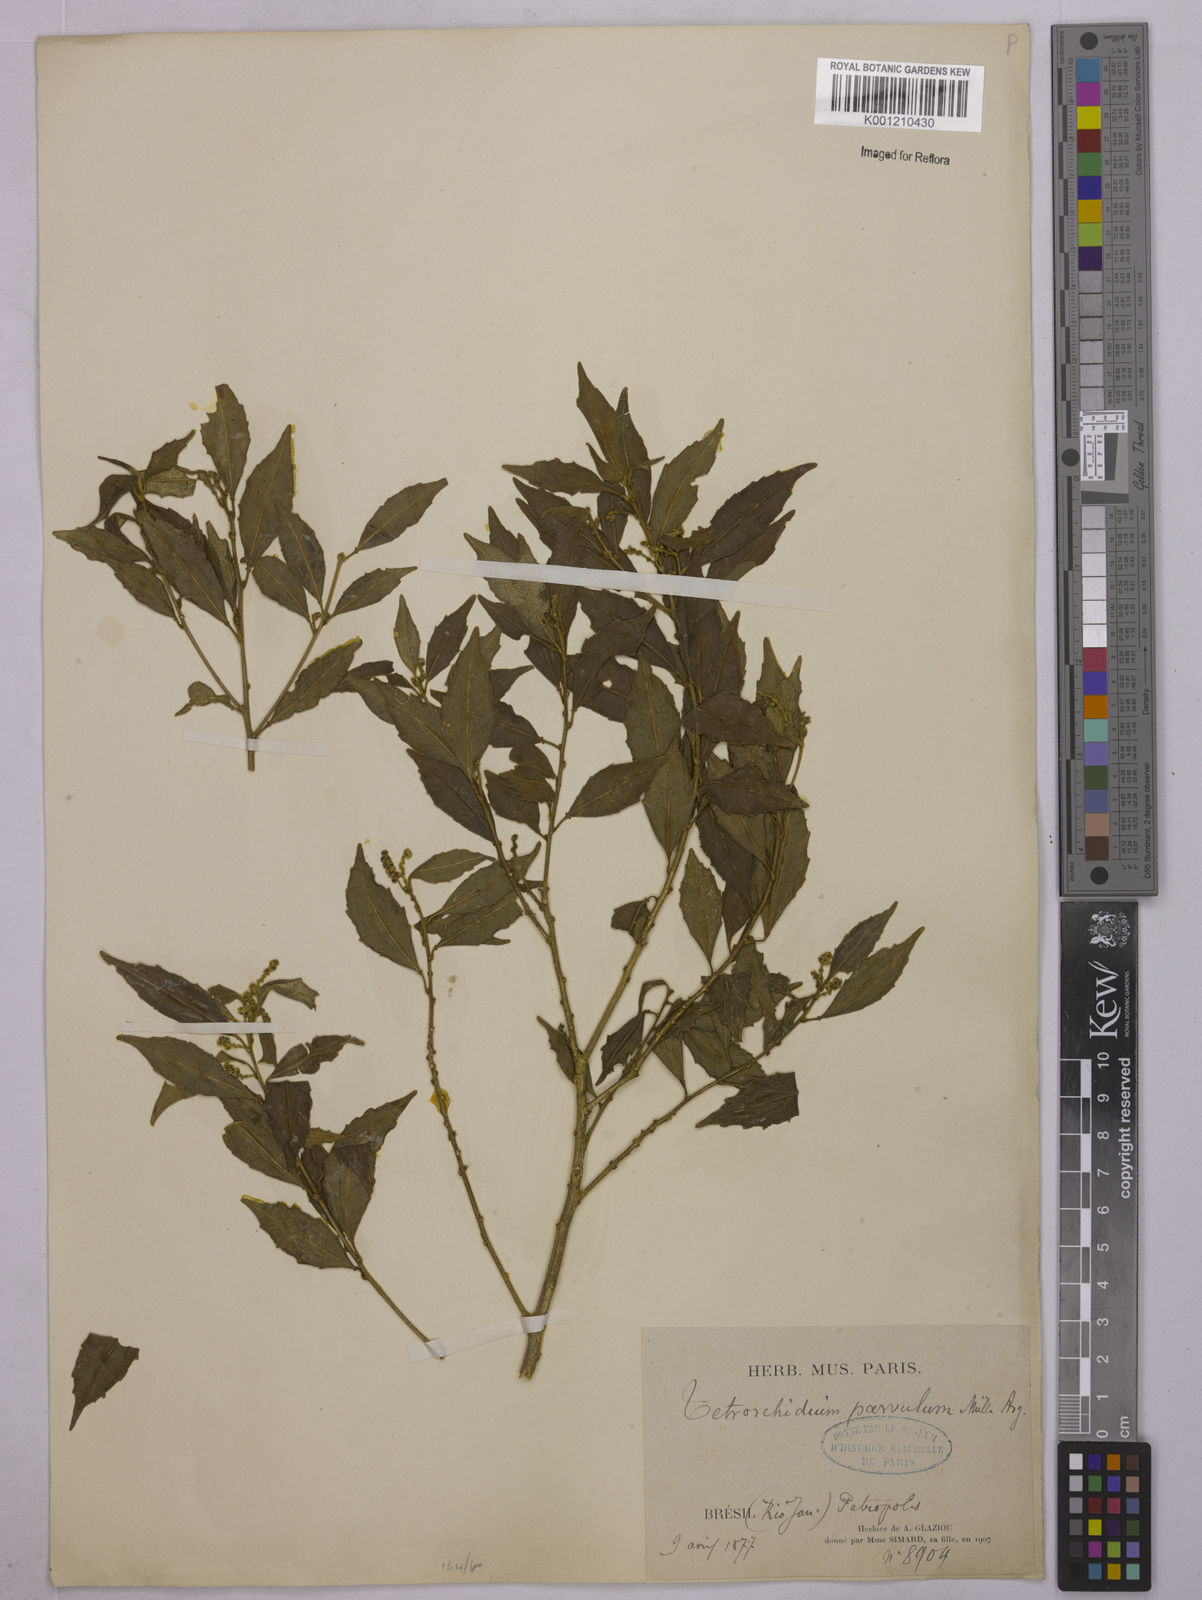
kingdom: Plantae
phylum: Tracheophyta
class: Magnoliopsida
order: Malpighiales
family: Euphorbiaceae
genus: Tetrorchidium
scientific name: Tetrorchidium
